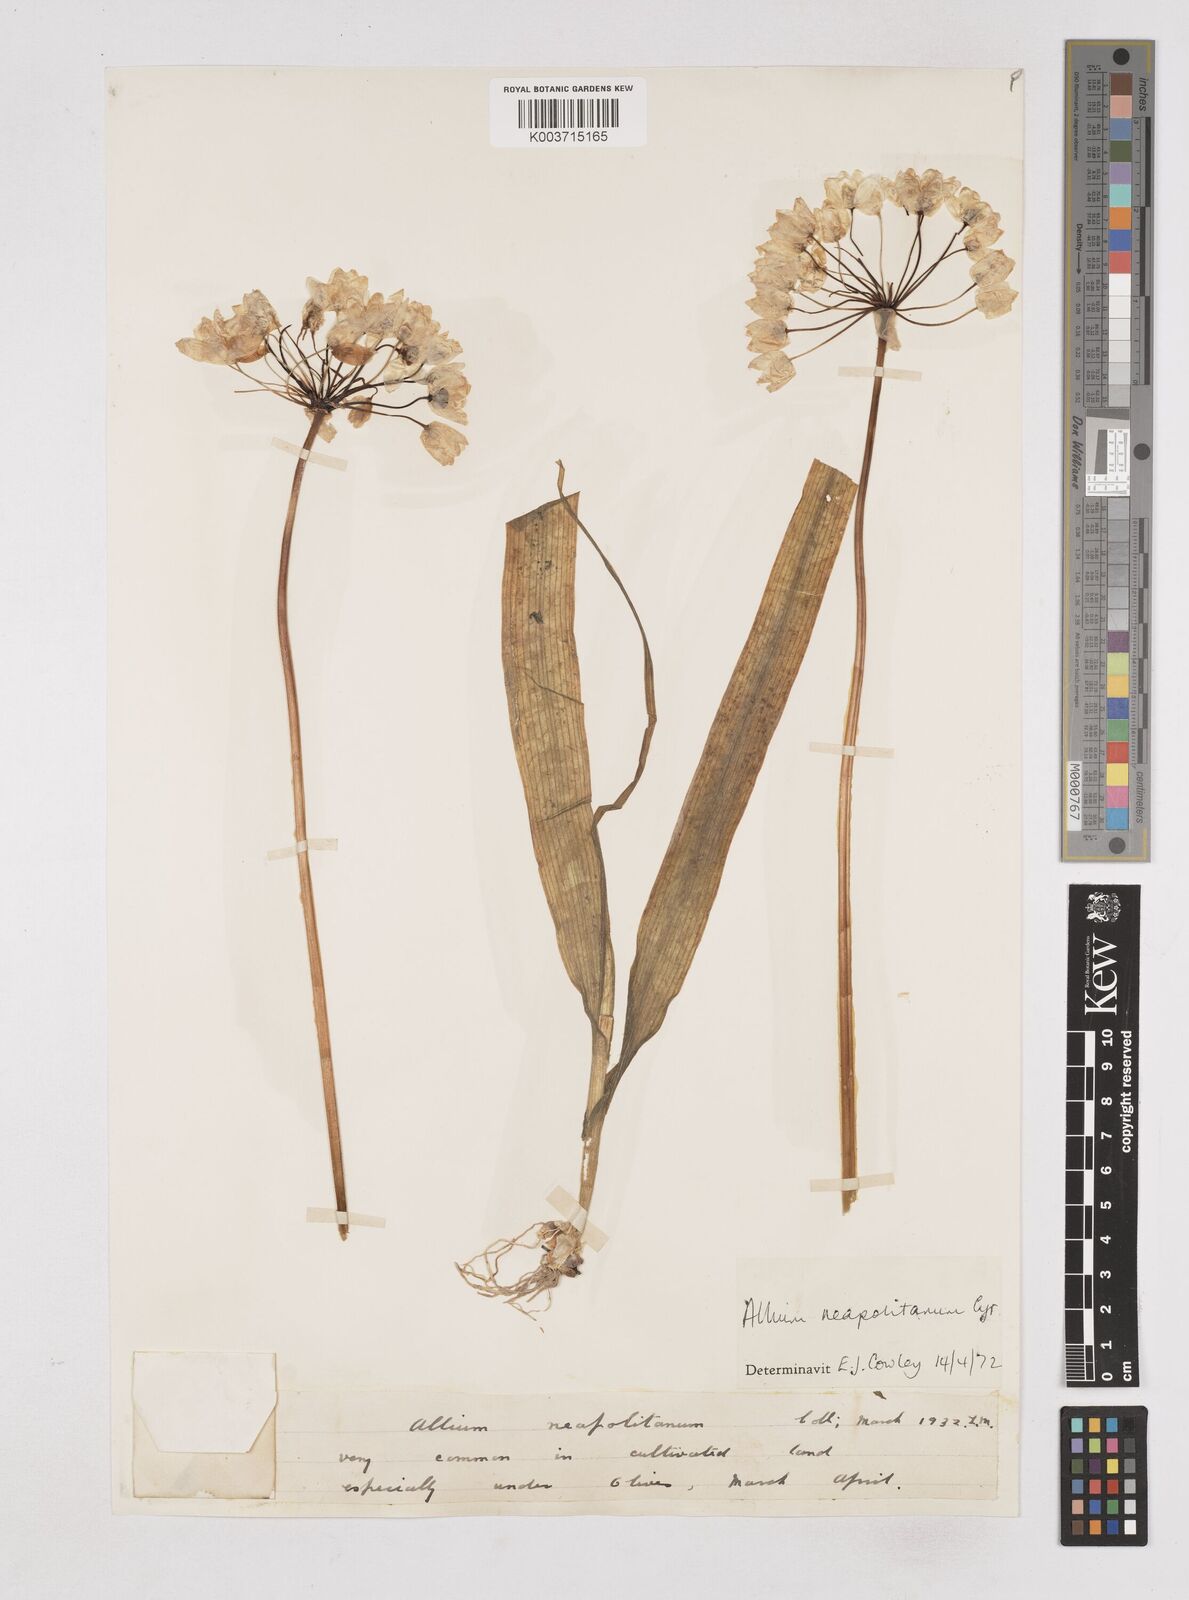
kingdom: Plantae
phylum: Tracheophyta
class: Liliopsida
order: Asparagales
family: Amaryllidaceae
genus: Allium
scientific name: Allium neapolitanum
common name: Neapolitan garlic
